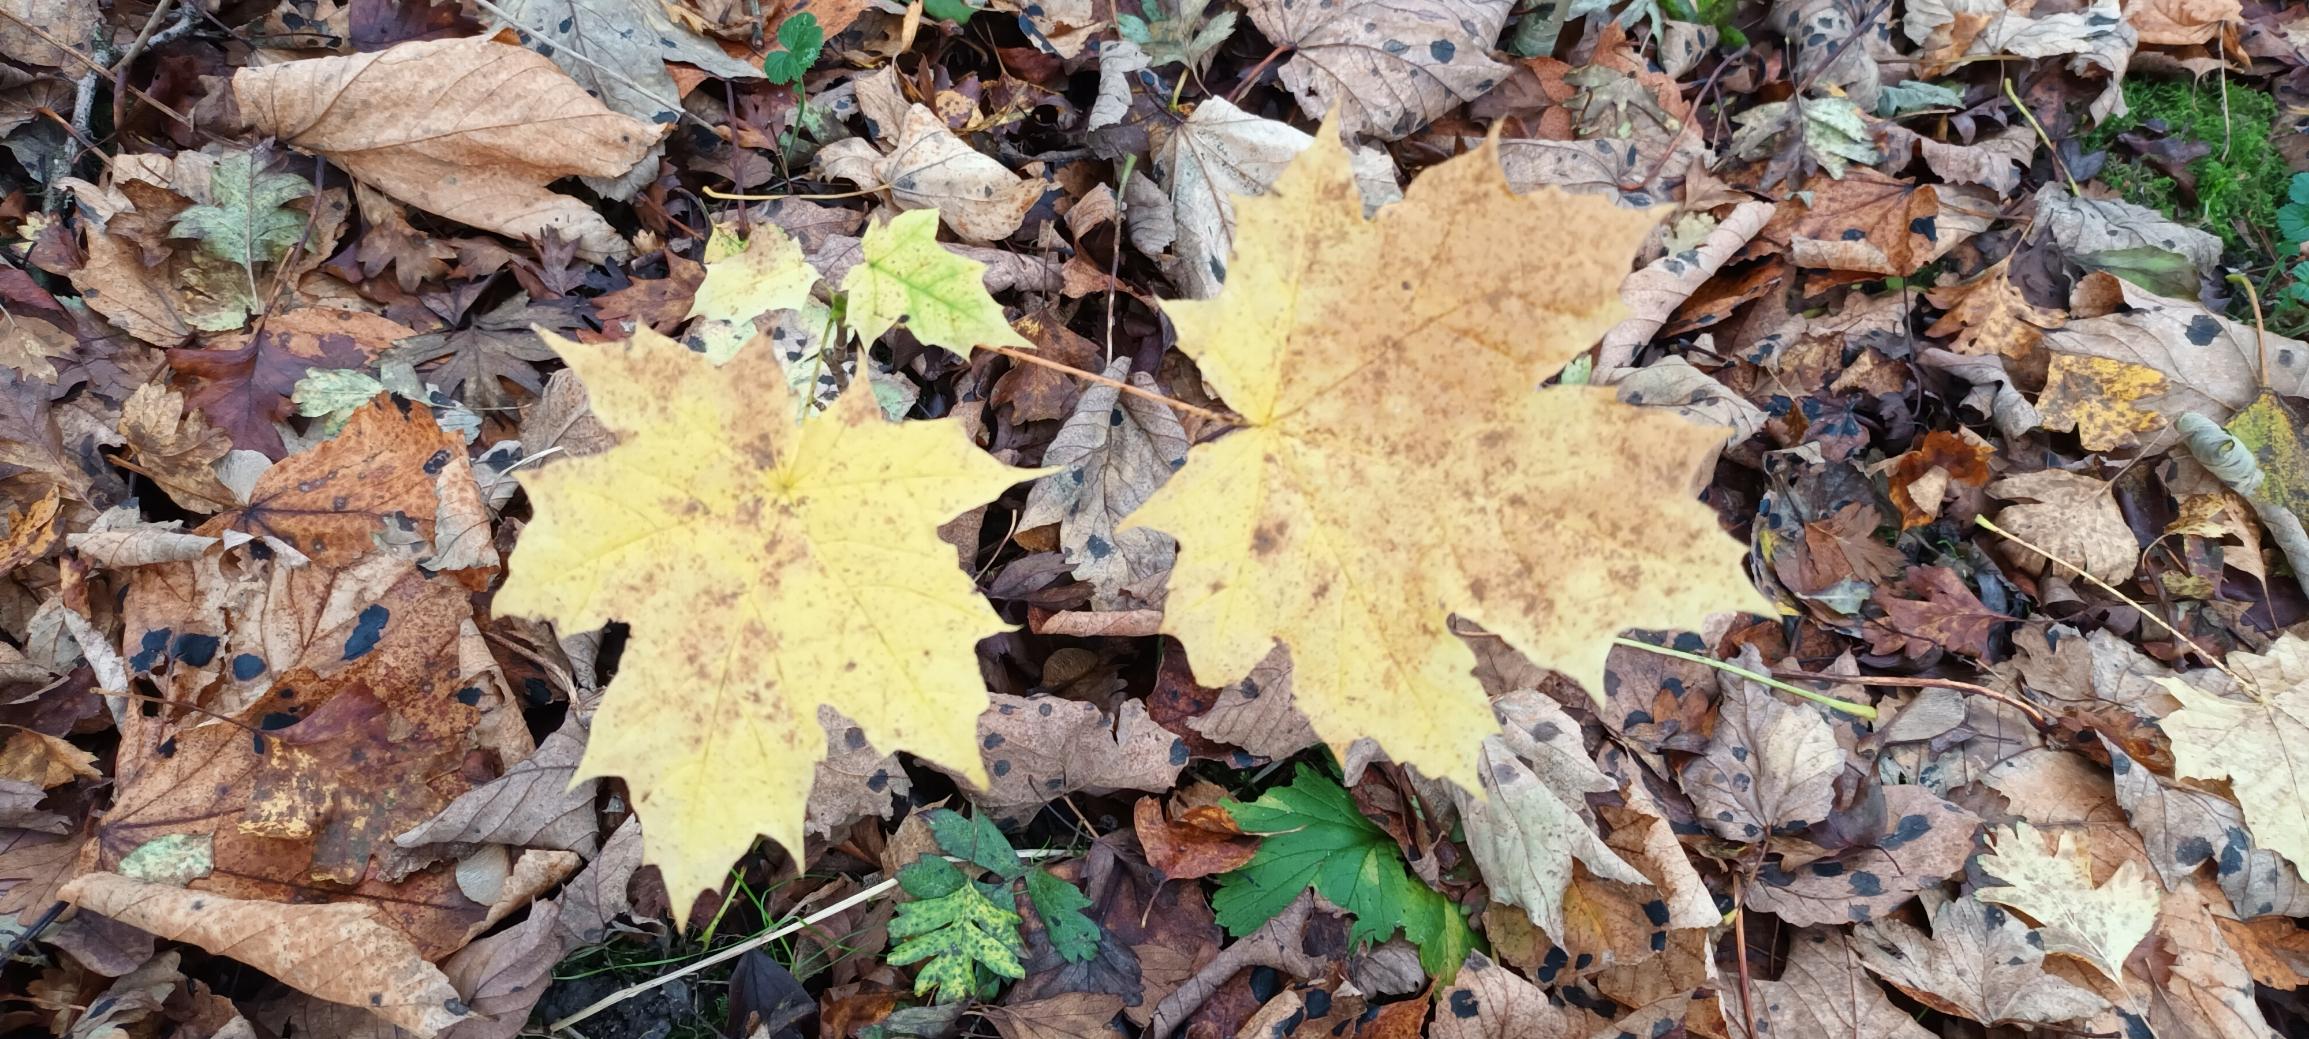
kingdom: Plantae
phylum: Tracheophyta
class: Magnoliopsida
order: Sapindales
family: Sapindaceae
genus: Acer
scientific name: Acer platanoides
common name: Spids-løn
